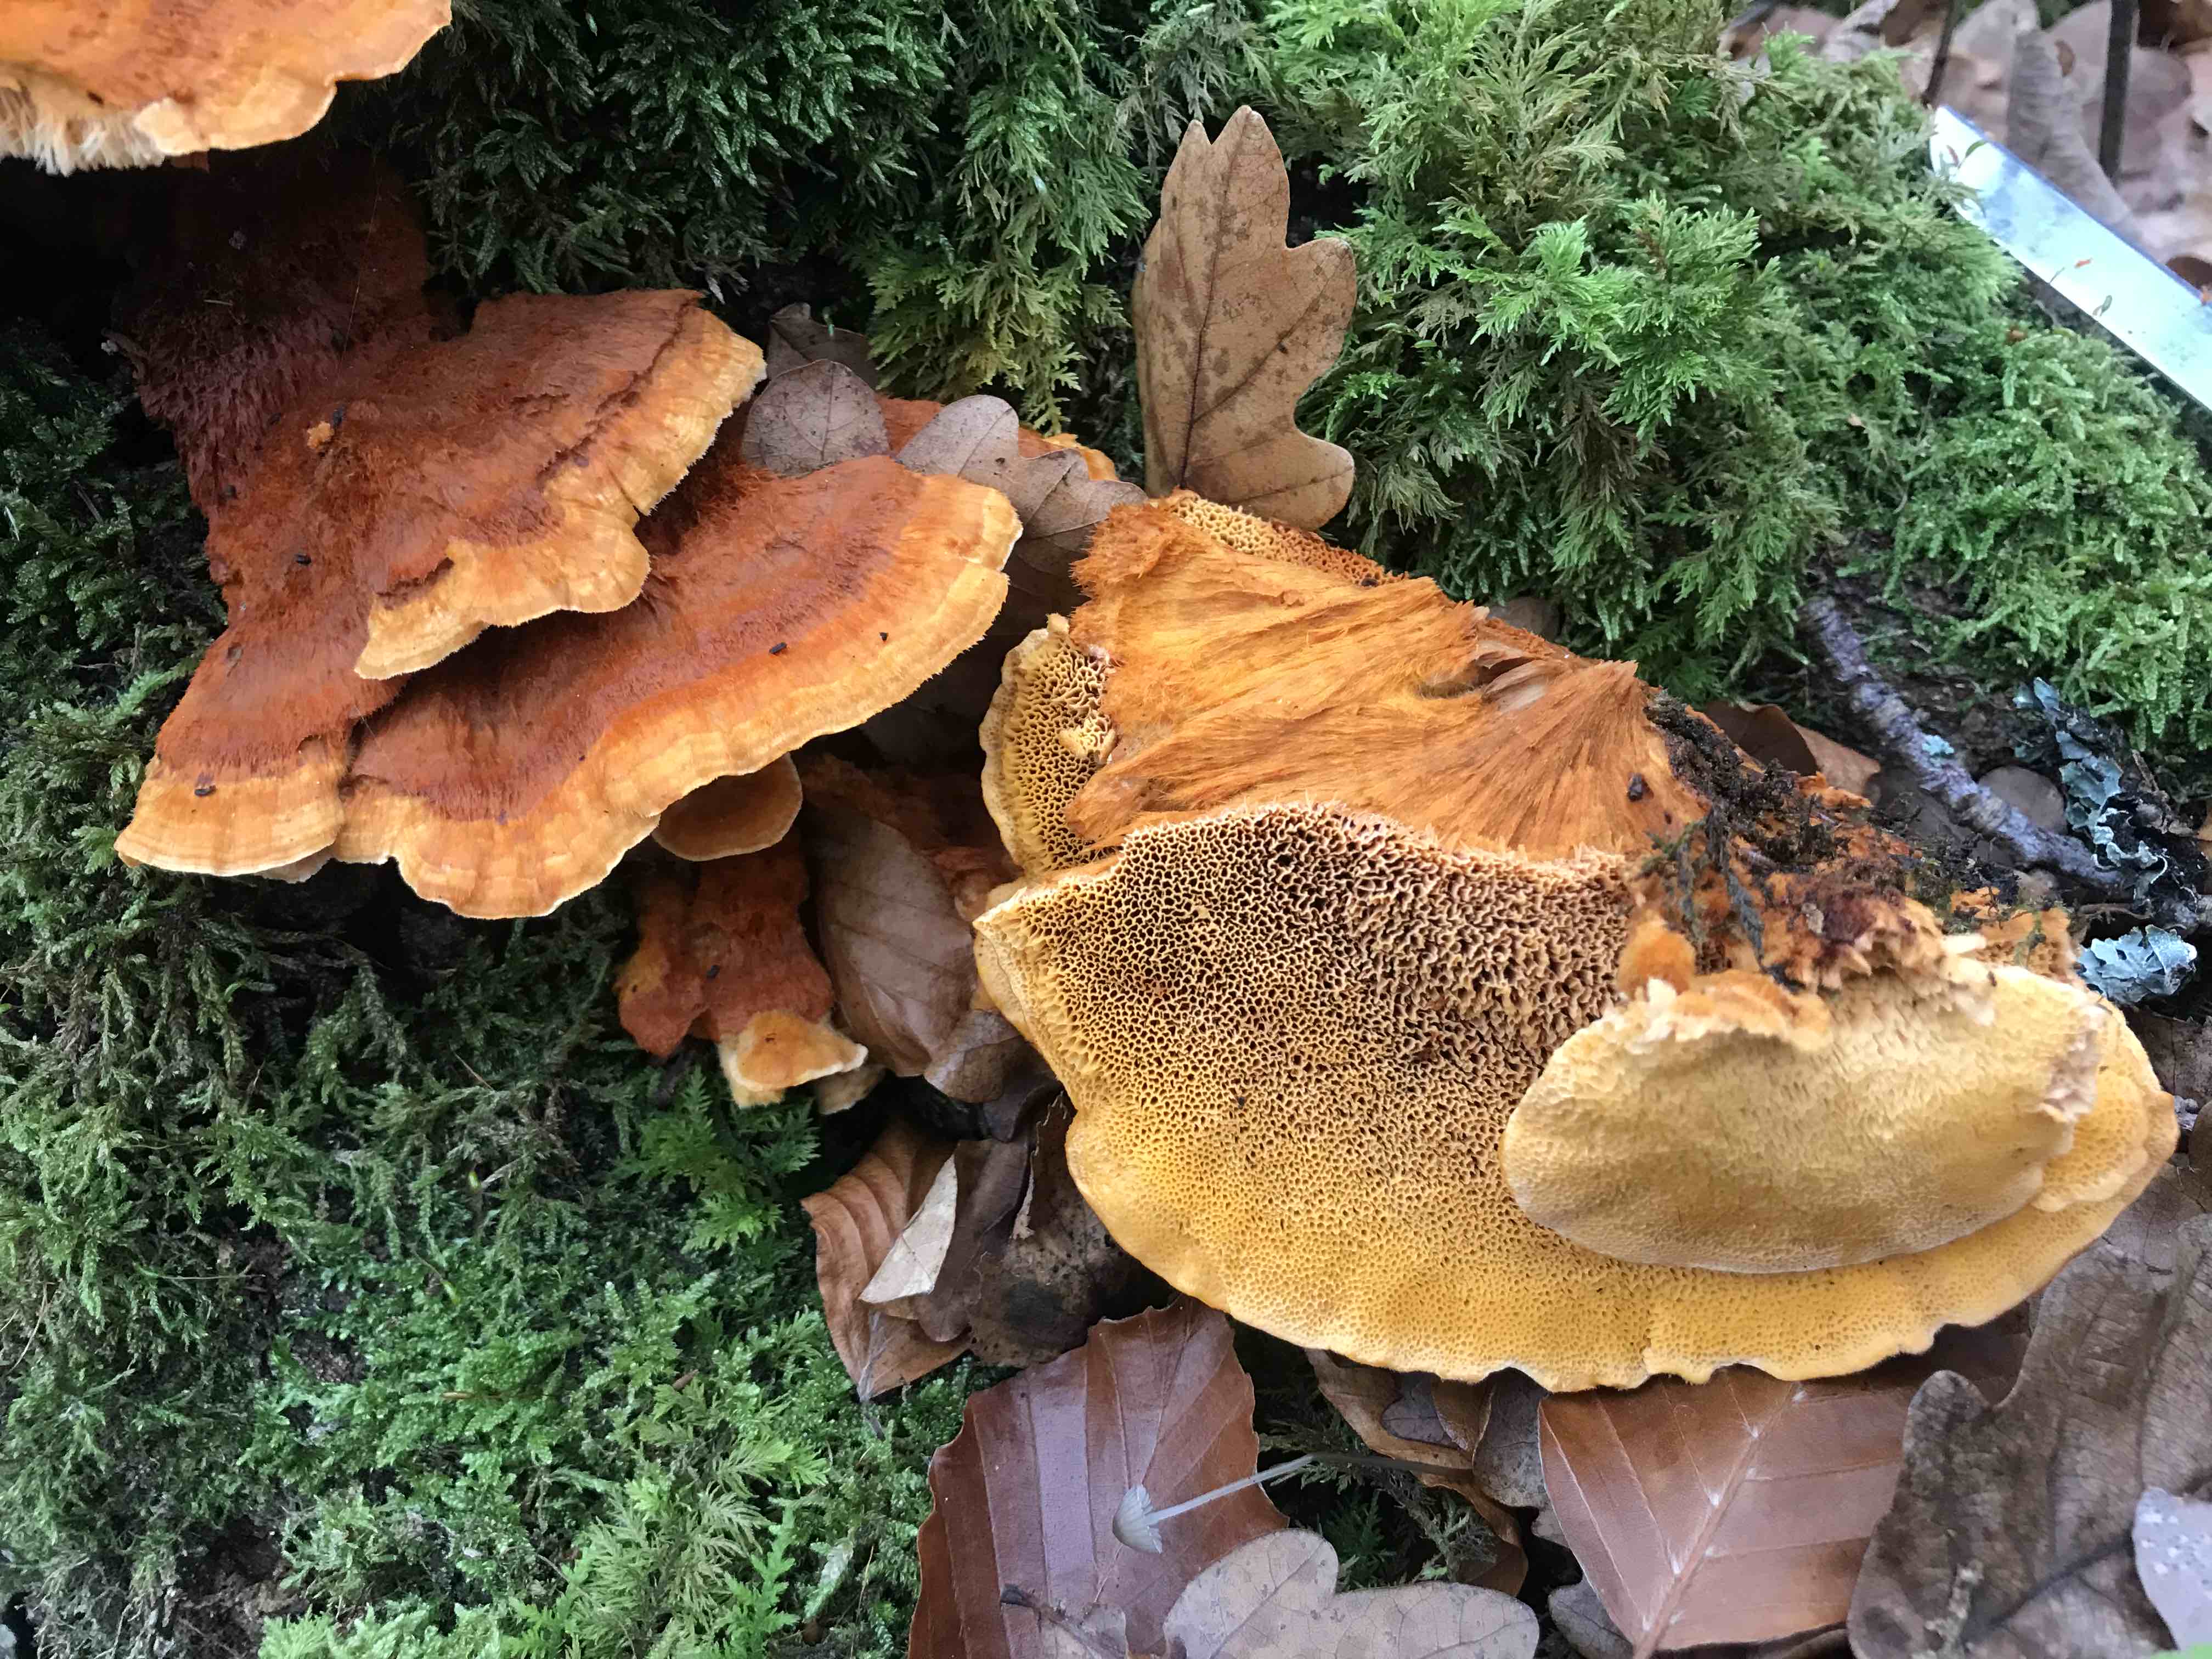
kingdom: Fungi
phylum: Basidiomycota
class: Agaricomycetes
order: Polyporales
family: Pycnoporellaceae
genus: Pycnoporellus
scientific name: Pycnoporellus fulgens
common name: flammeporesvamp
